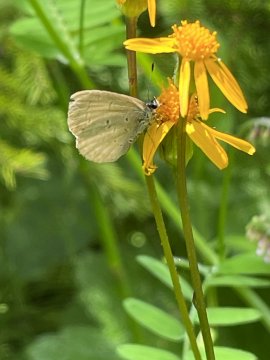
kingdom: Animalia
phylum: Arthropoda
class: Insecta
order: Lepidoptera
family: Lycaenidae
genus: Cyaniris
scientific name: Cyaniris neglecta
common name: Summer Azure
